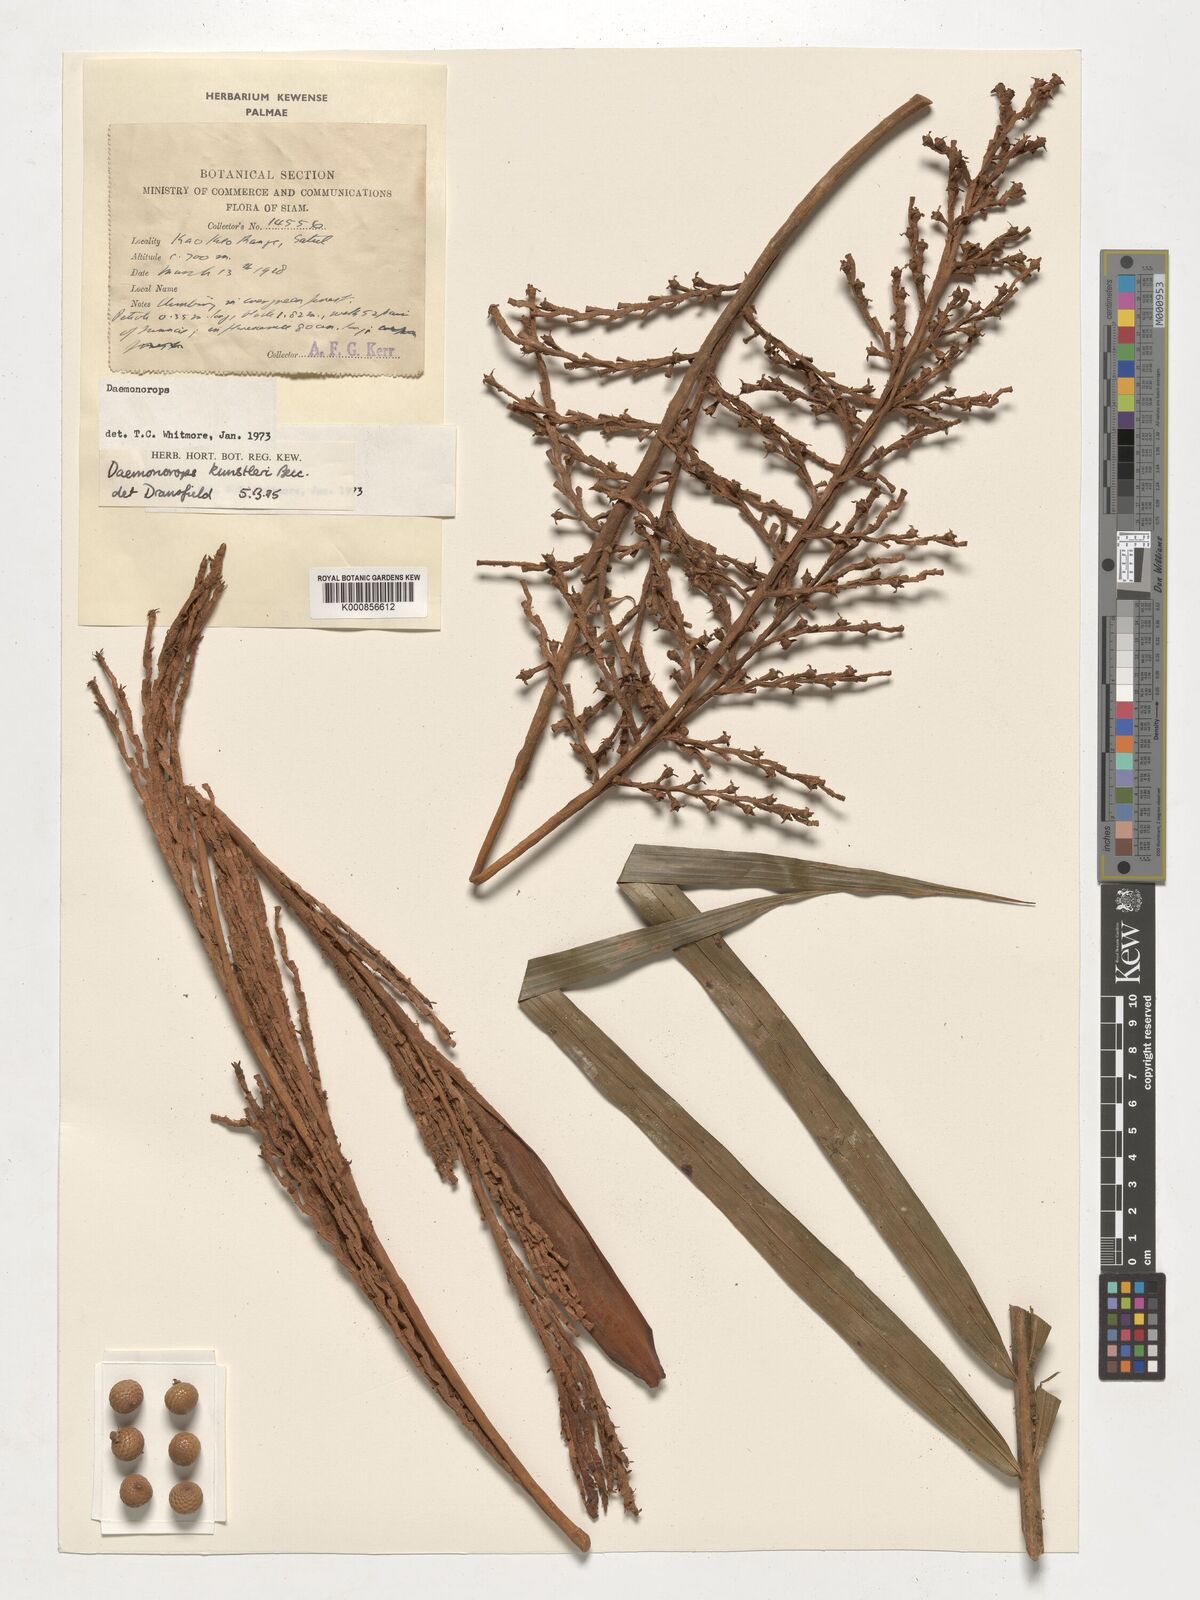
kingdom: Plantae
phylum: Tracheophyta
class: Liliopsida
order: Arecales
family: Arecaceae
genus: Calamus
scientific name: Calamus kunstleri
